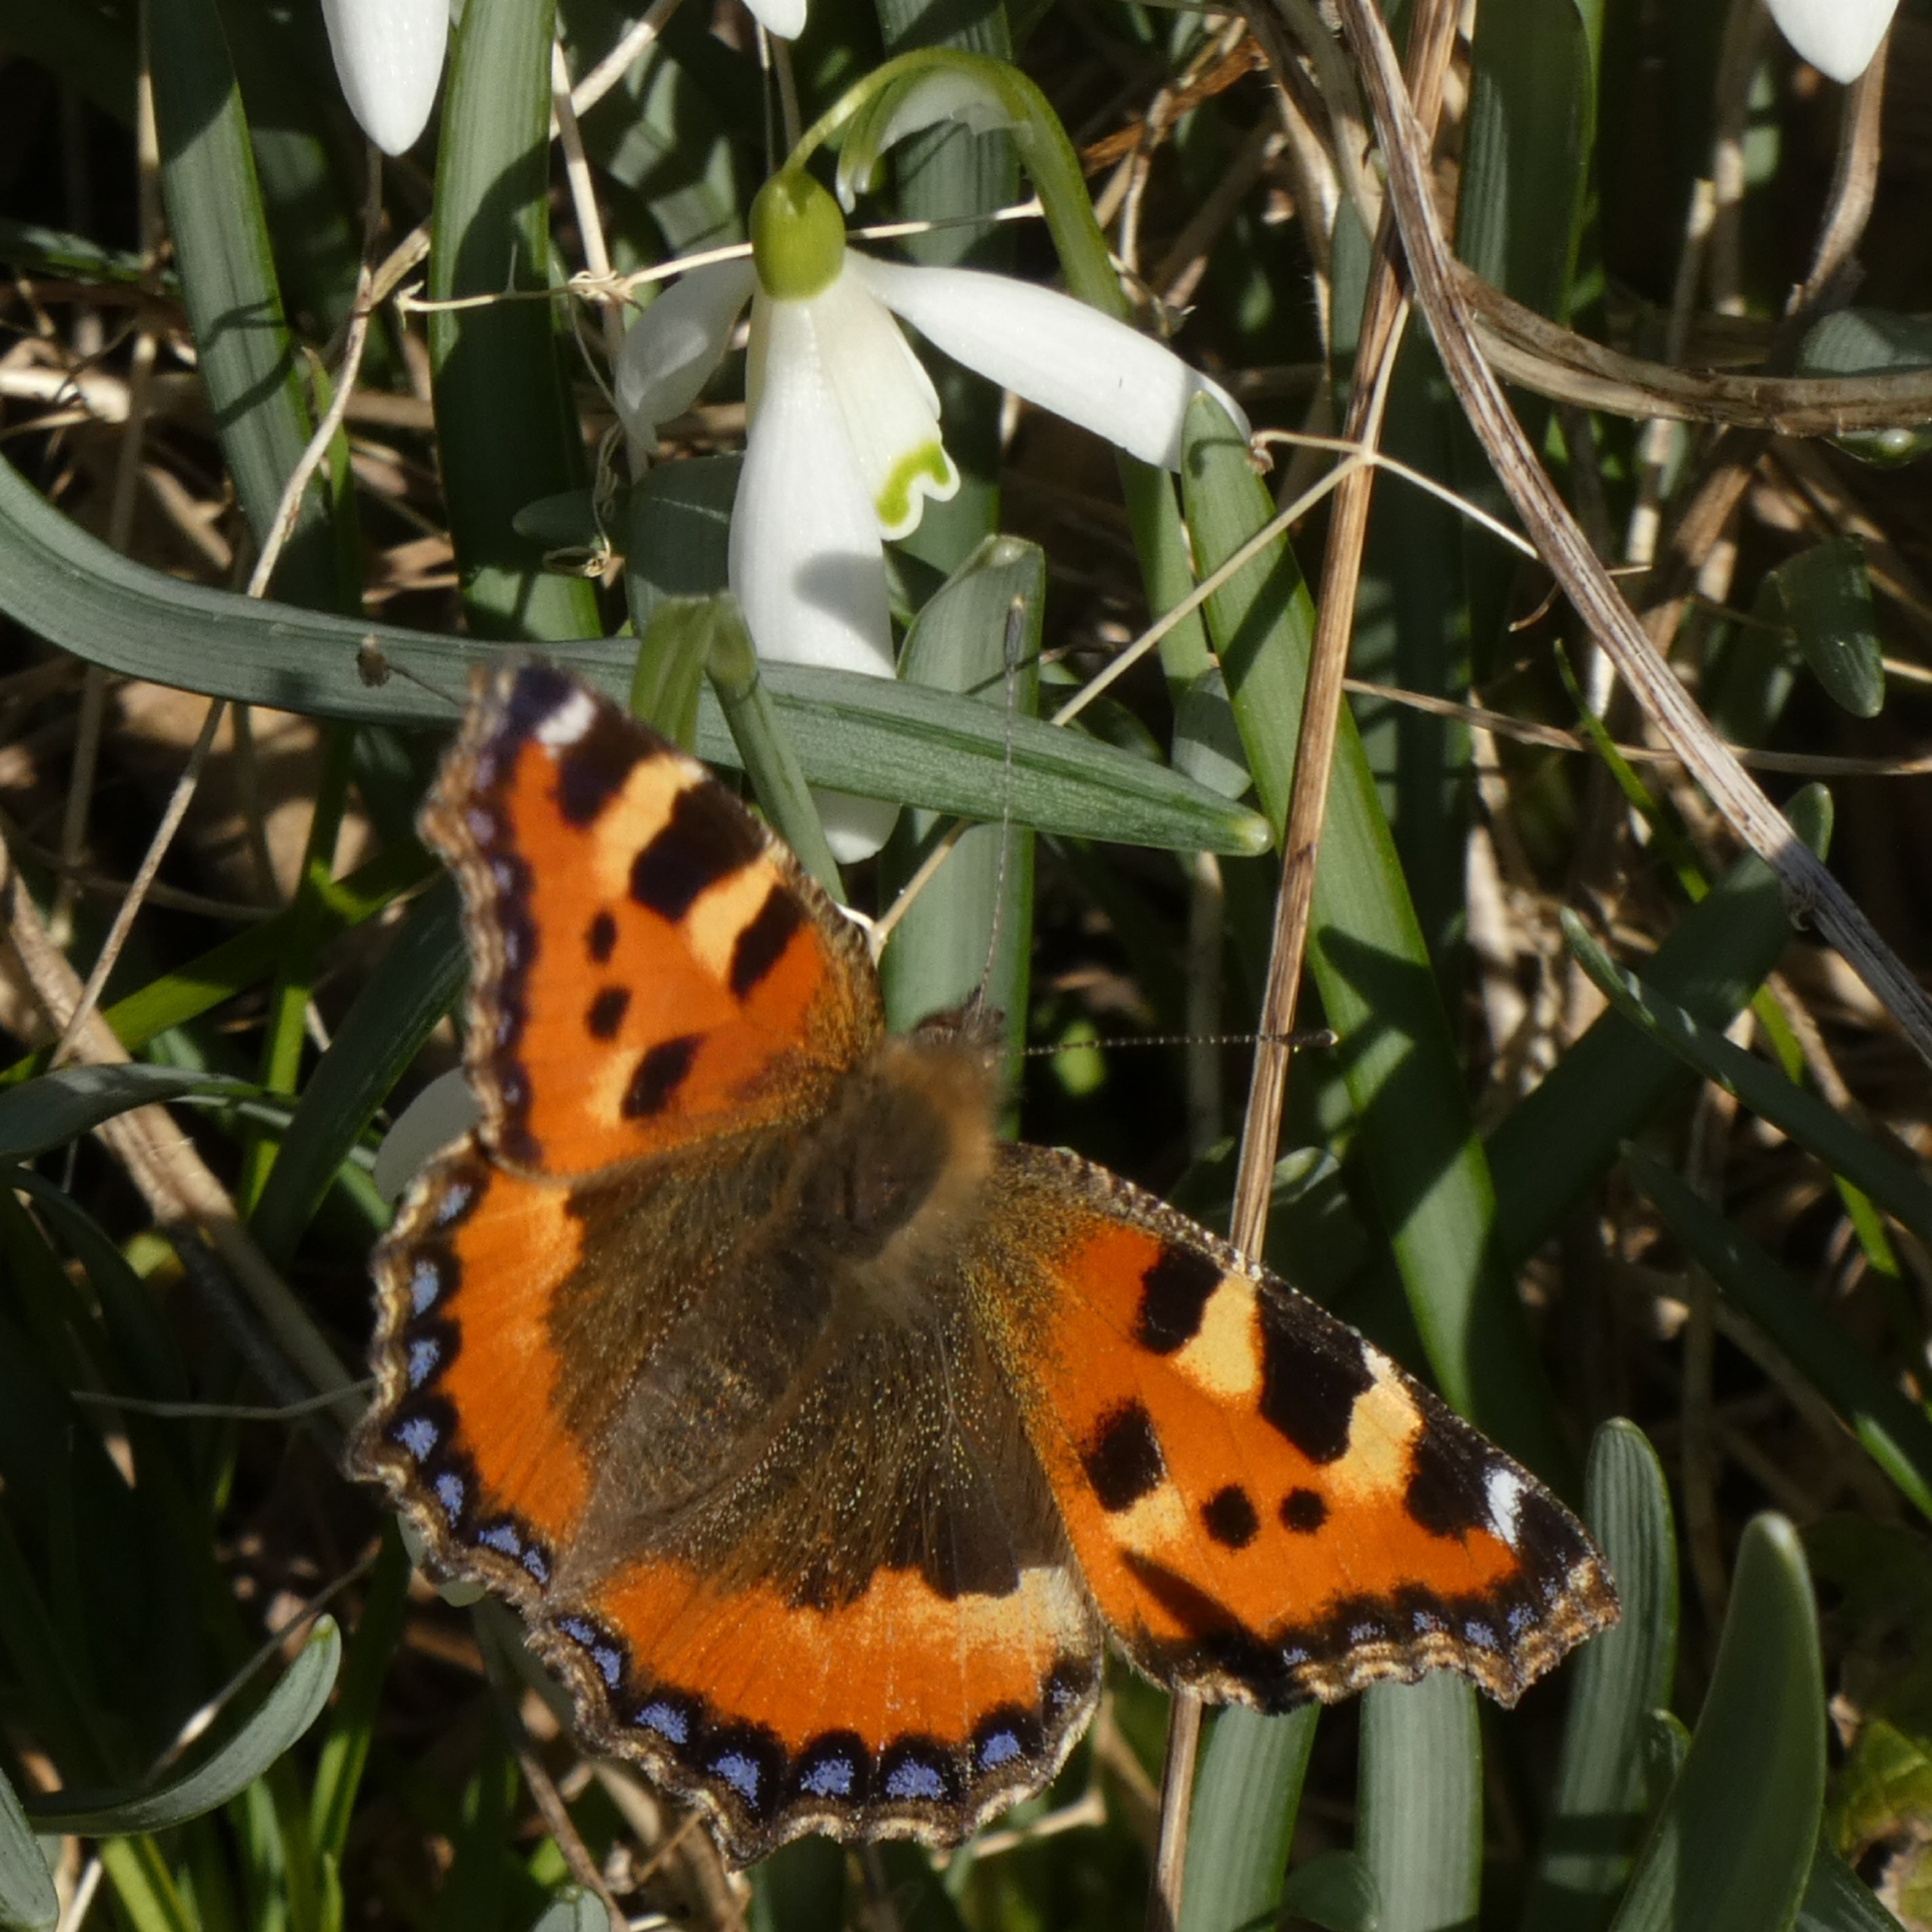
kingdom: Animalia
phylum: Arthropoda
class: Insecta
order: Lepidoptera
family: Nymphalidae
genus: Aglais
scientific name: Aglais urticae
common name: Nældens takvinge
